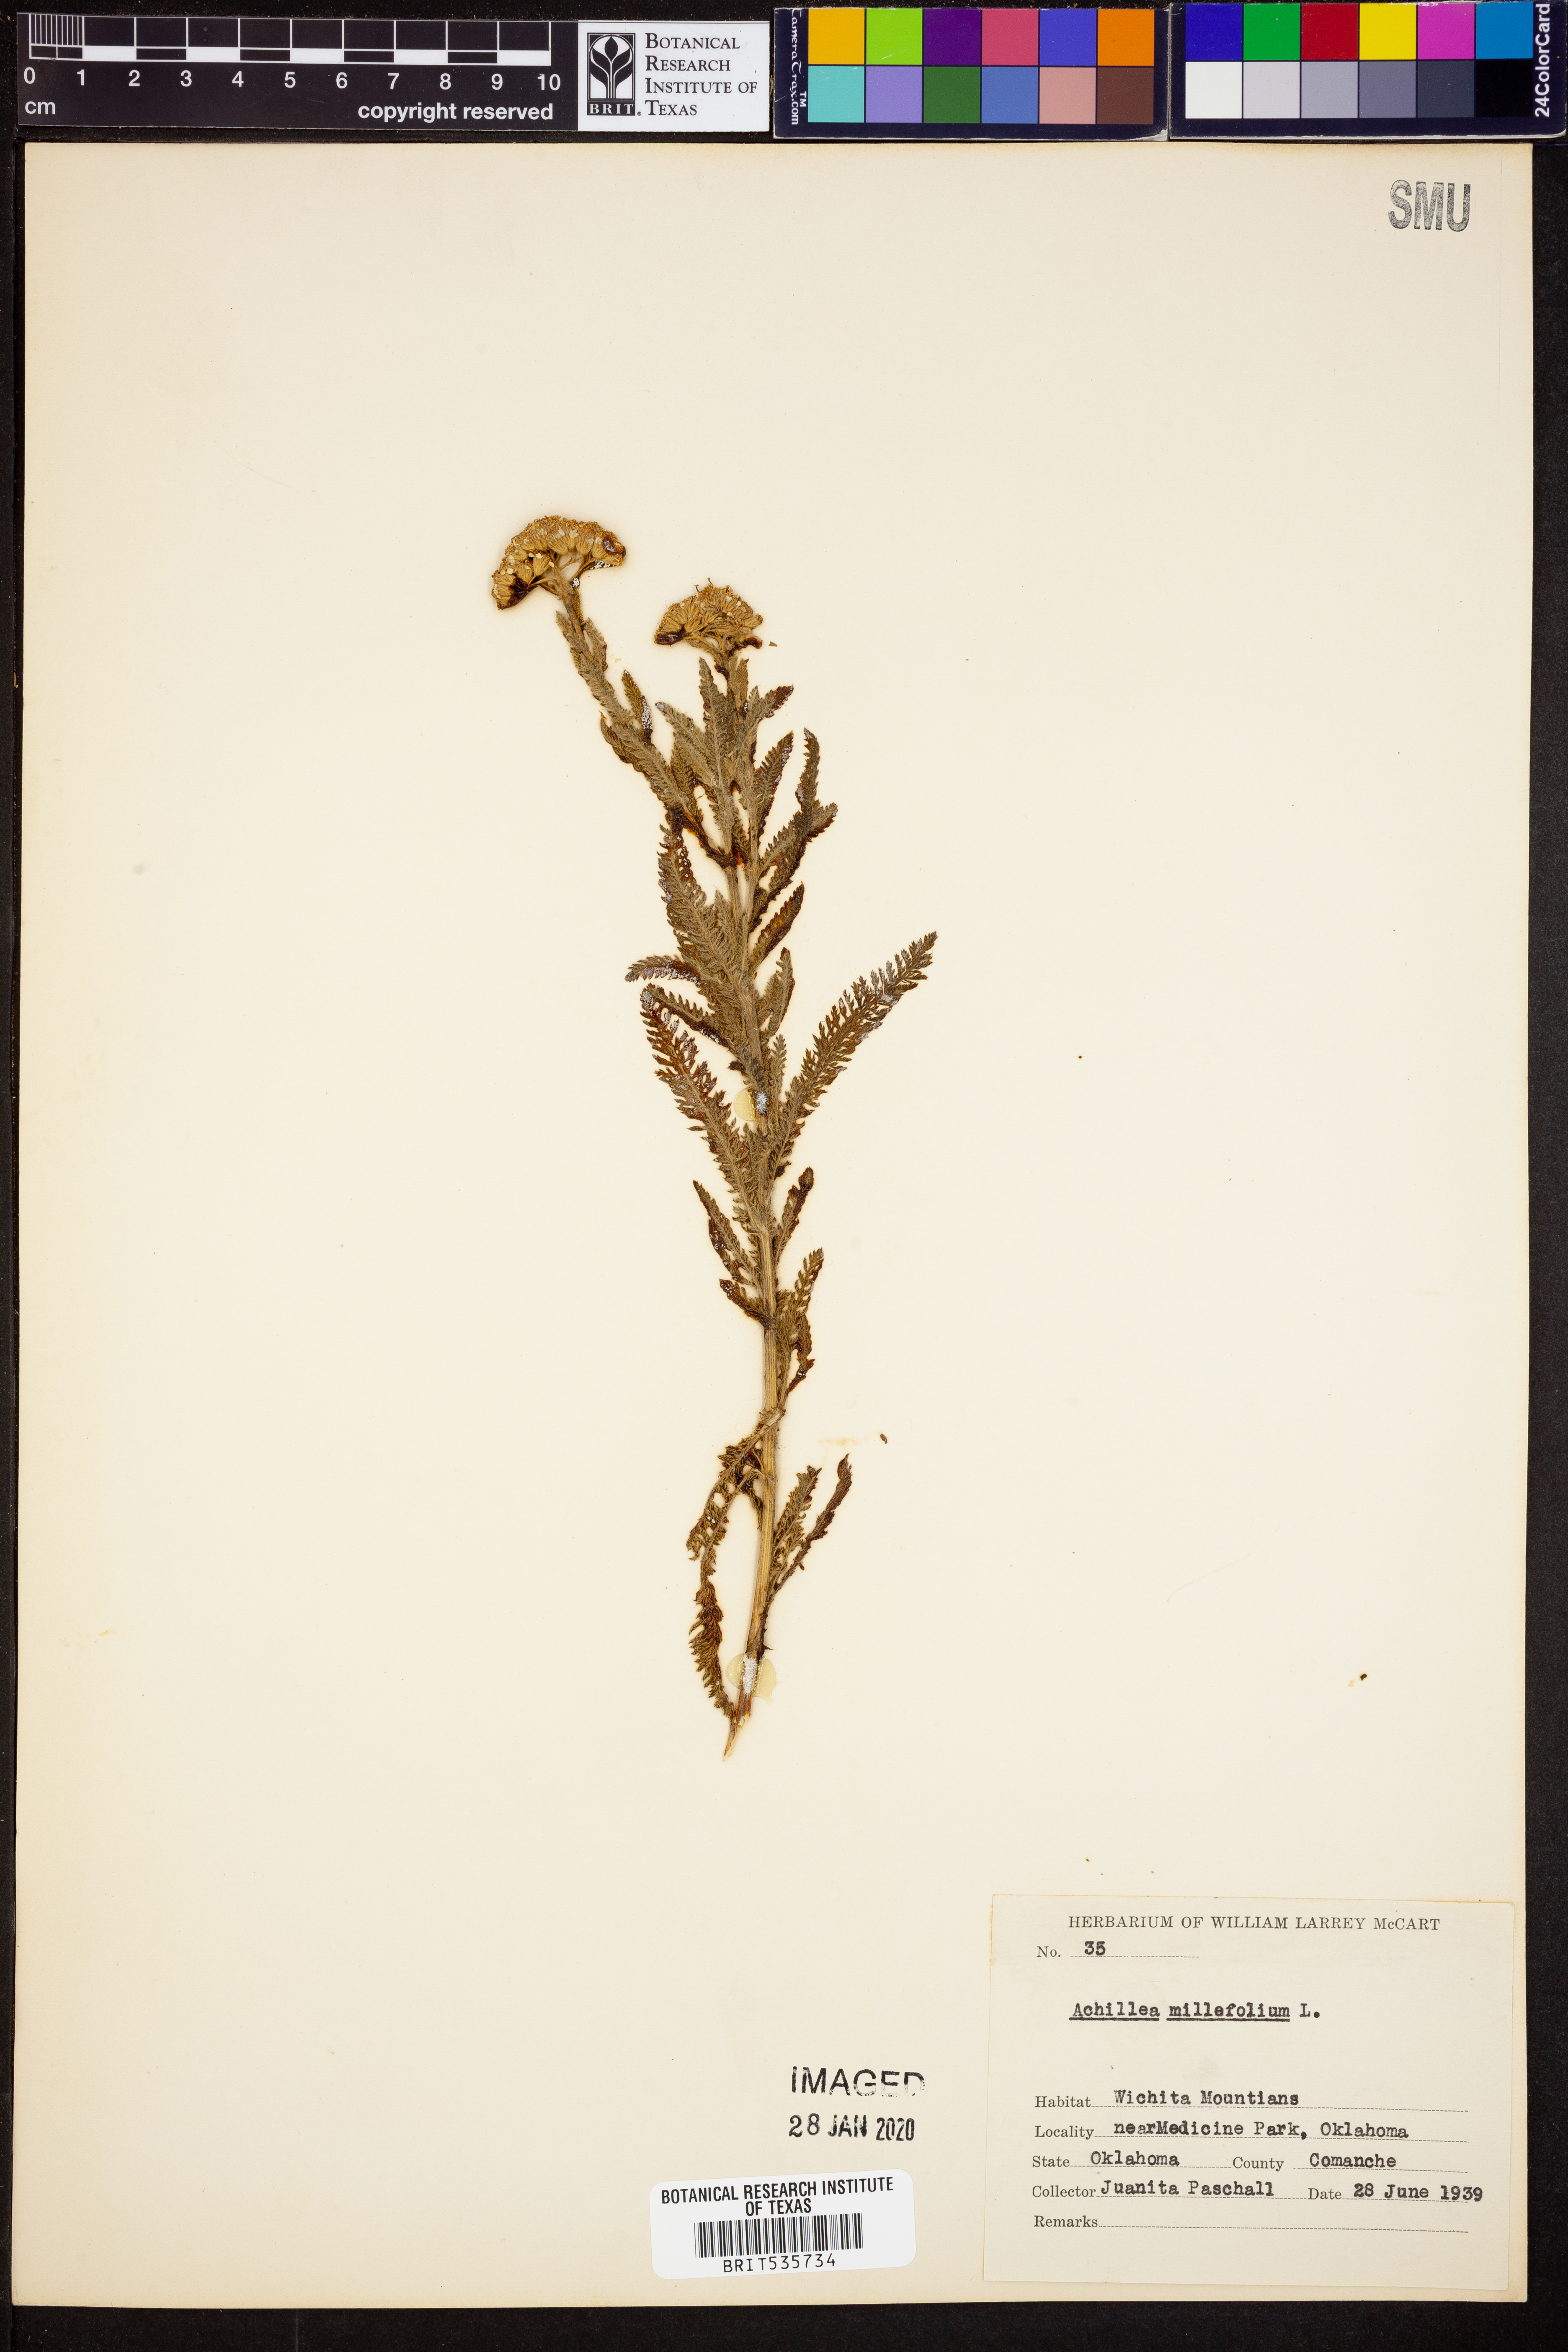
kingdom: Plantae
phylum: Tracheophyta
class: Magnoliopsida
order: Asterales
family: Asteraceae
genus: Achillea
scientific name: Achillea millefolium
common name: Yarrow
